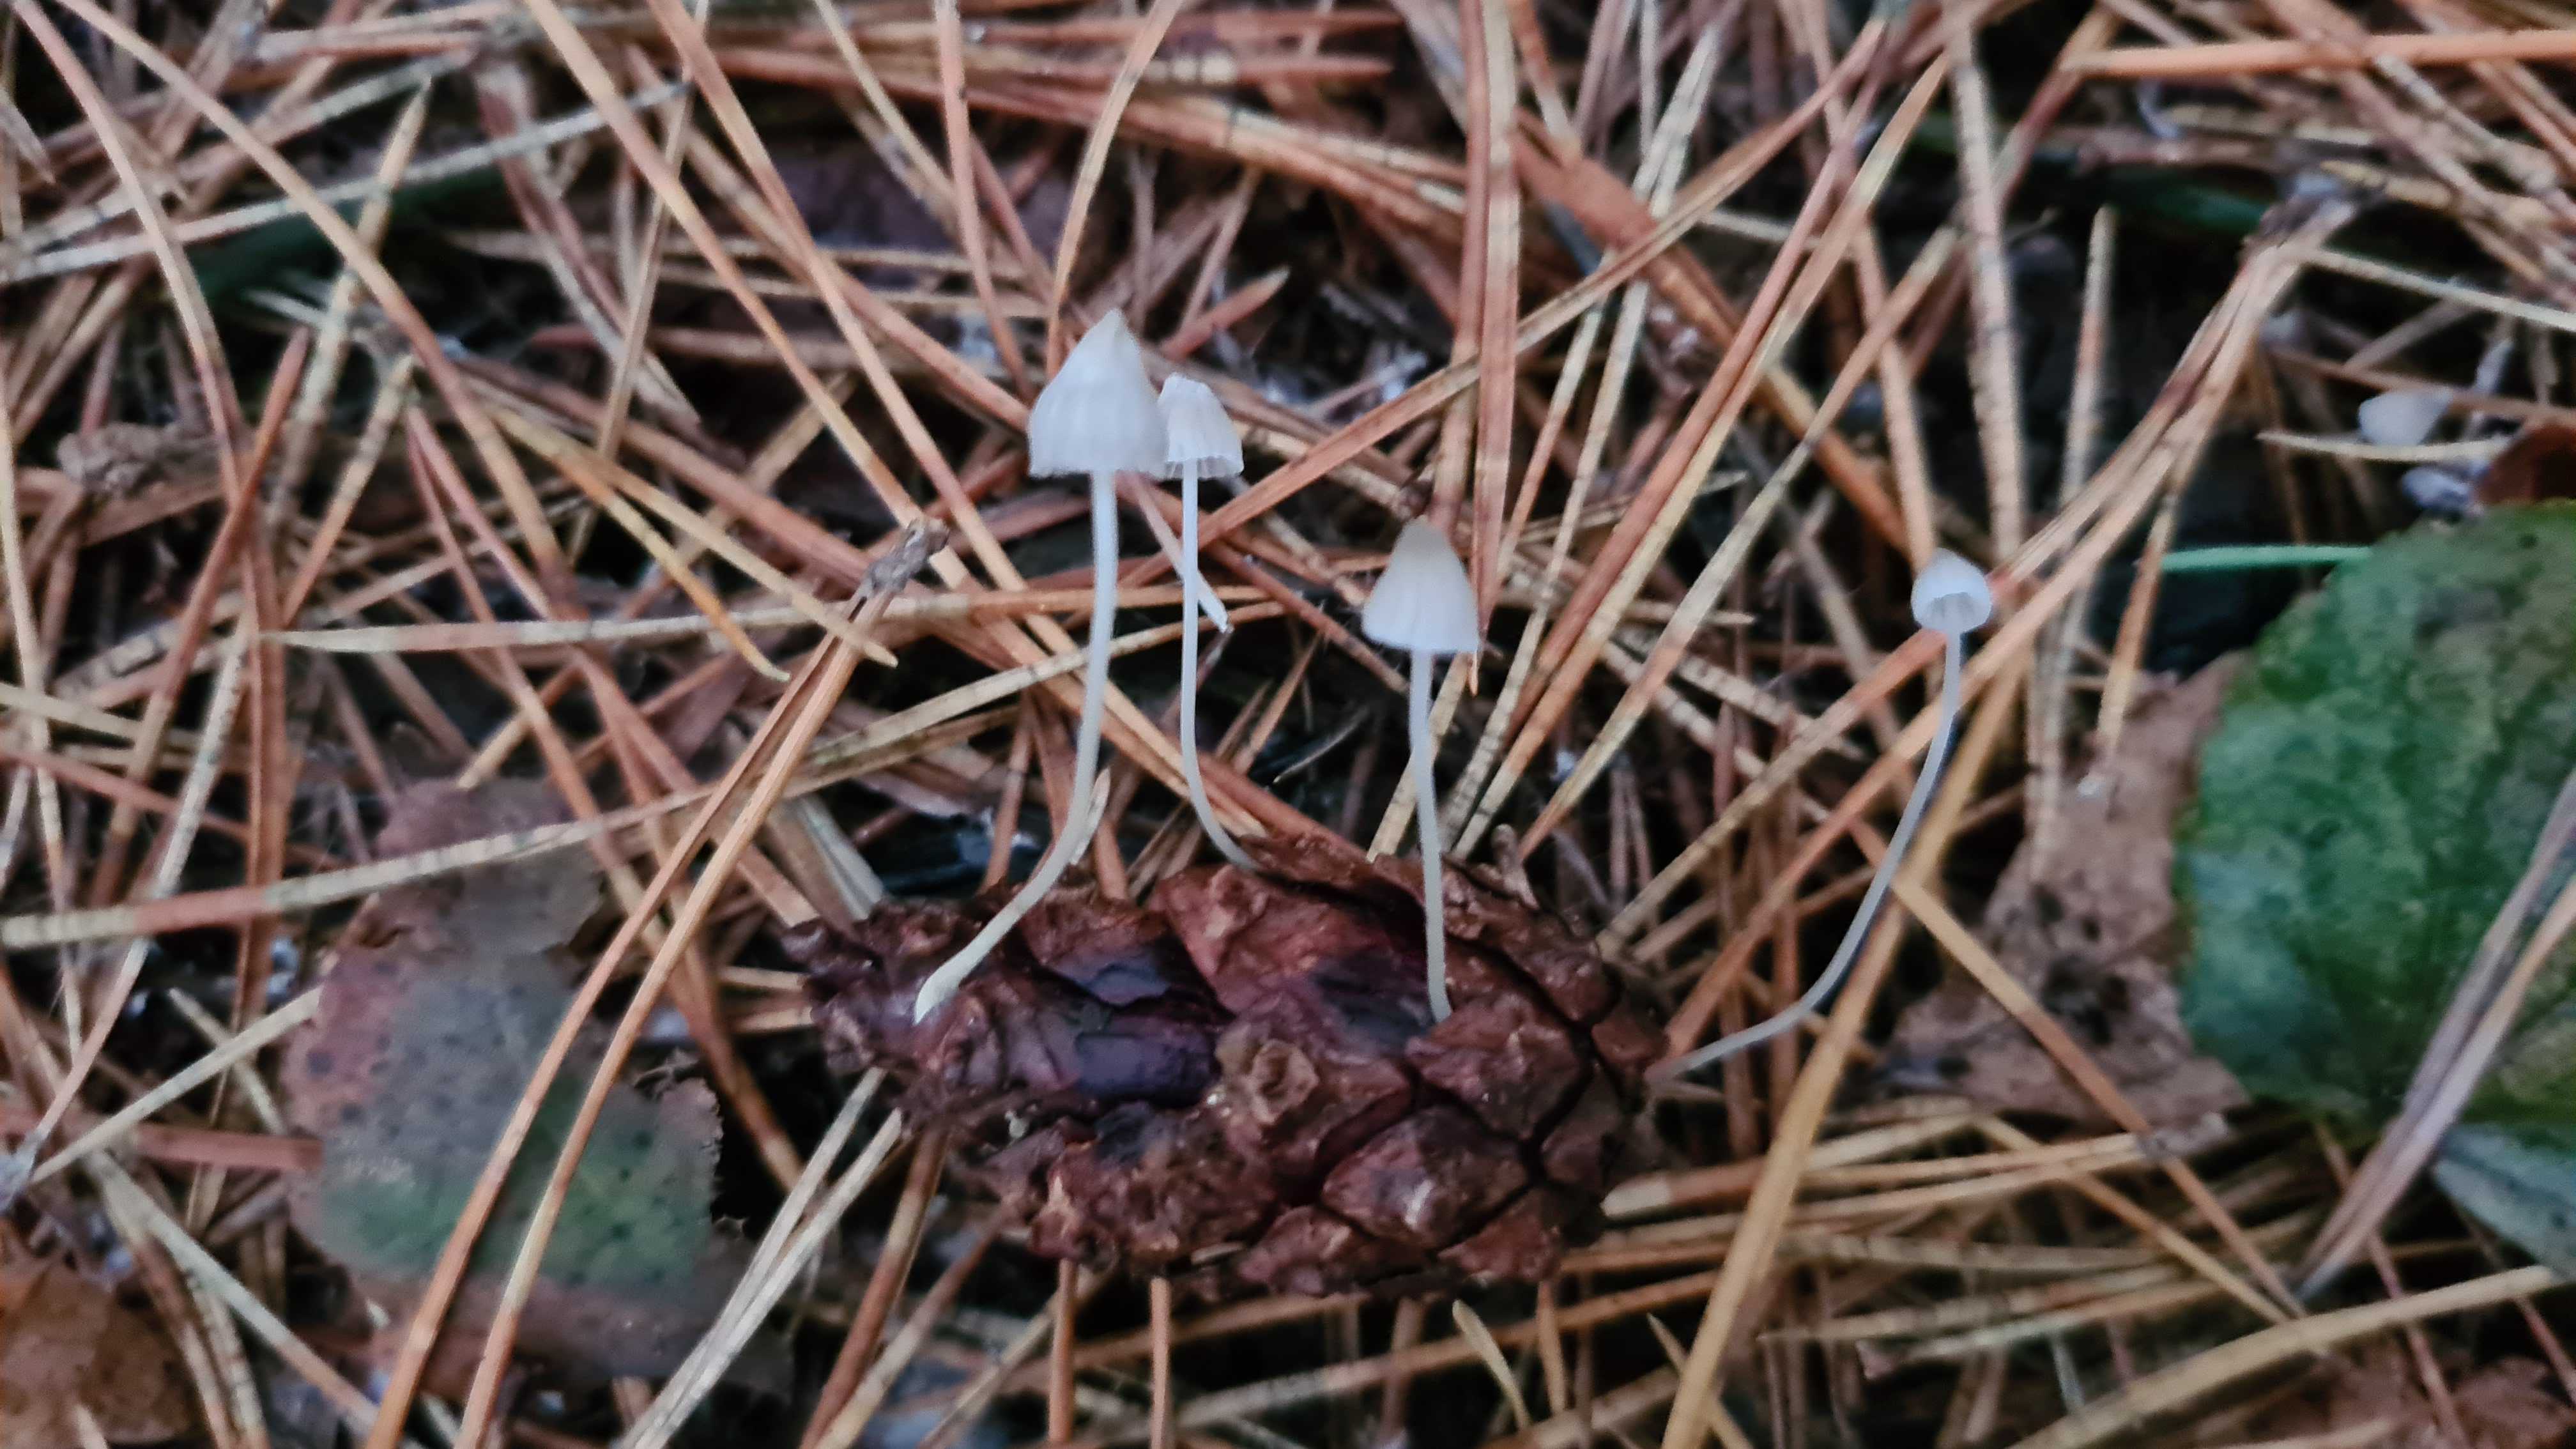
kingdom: Fungi
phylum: Basidiomycota
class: Agaricomycetes
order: Agaricales
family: Mycenaceae
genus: Mycena
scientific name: Mycena cinerella
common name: mel-huesvamp
